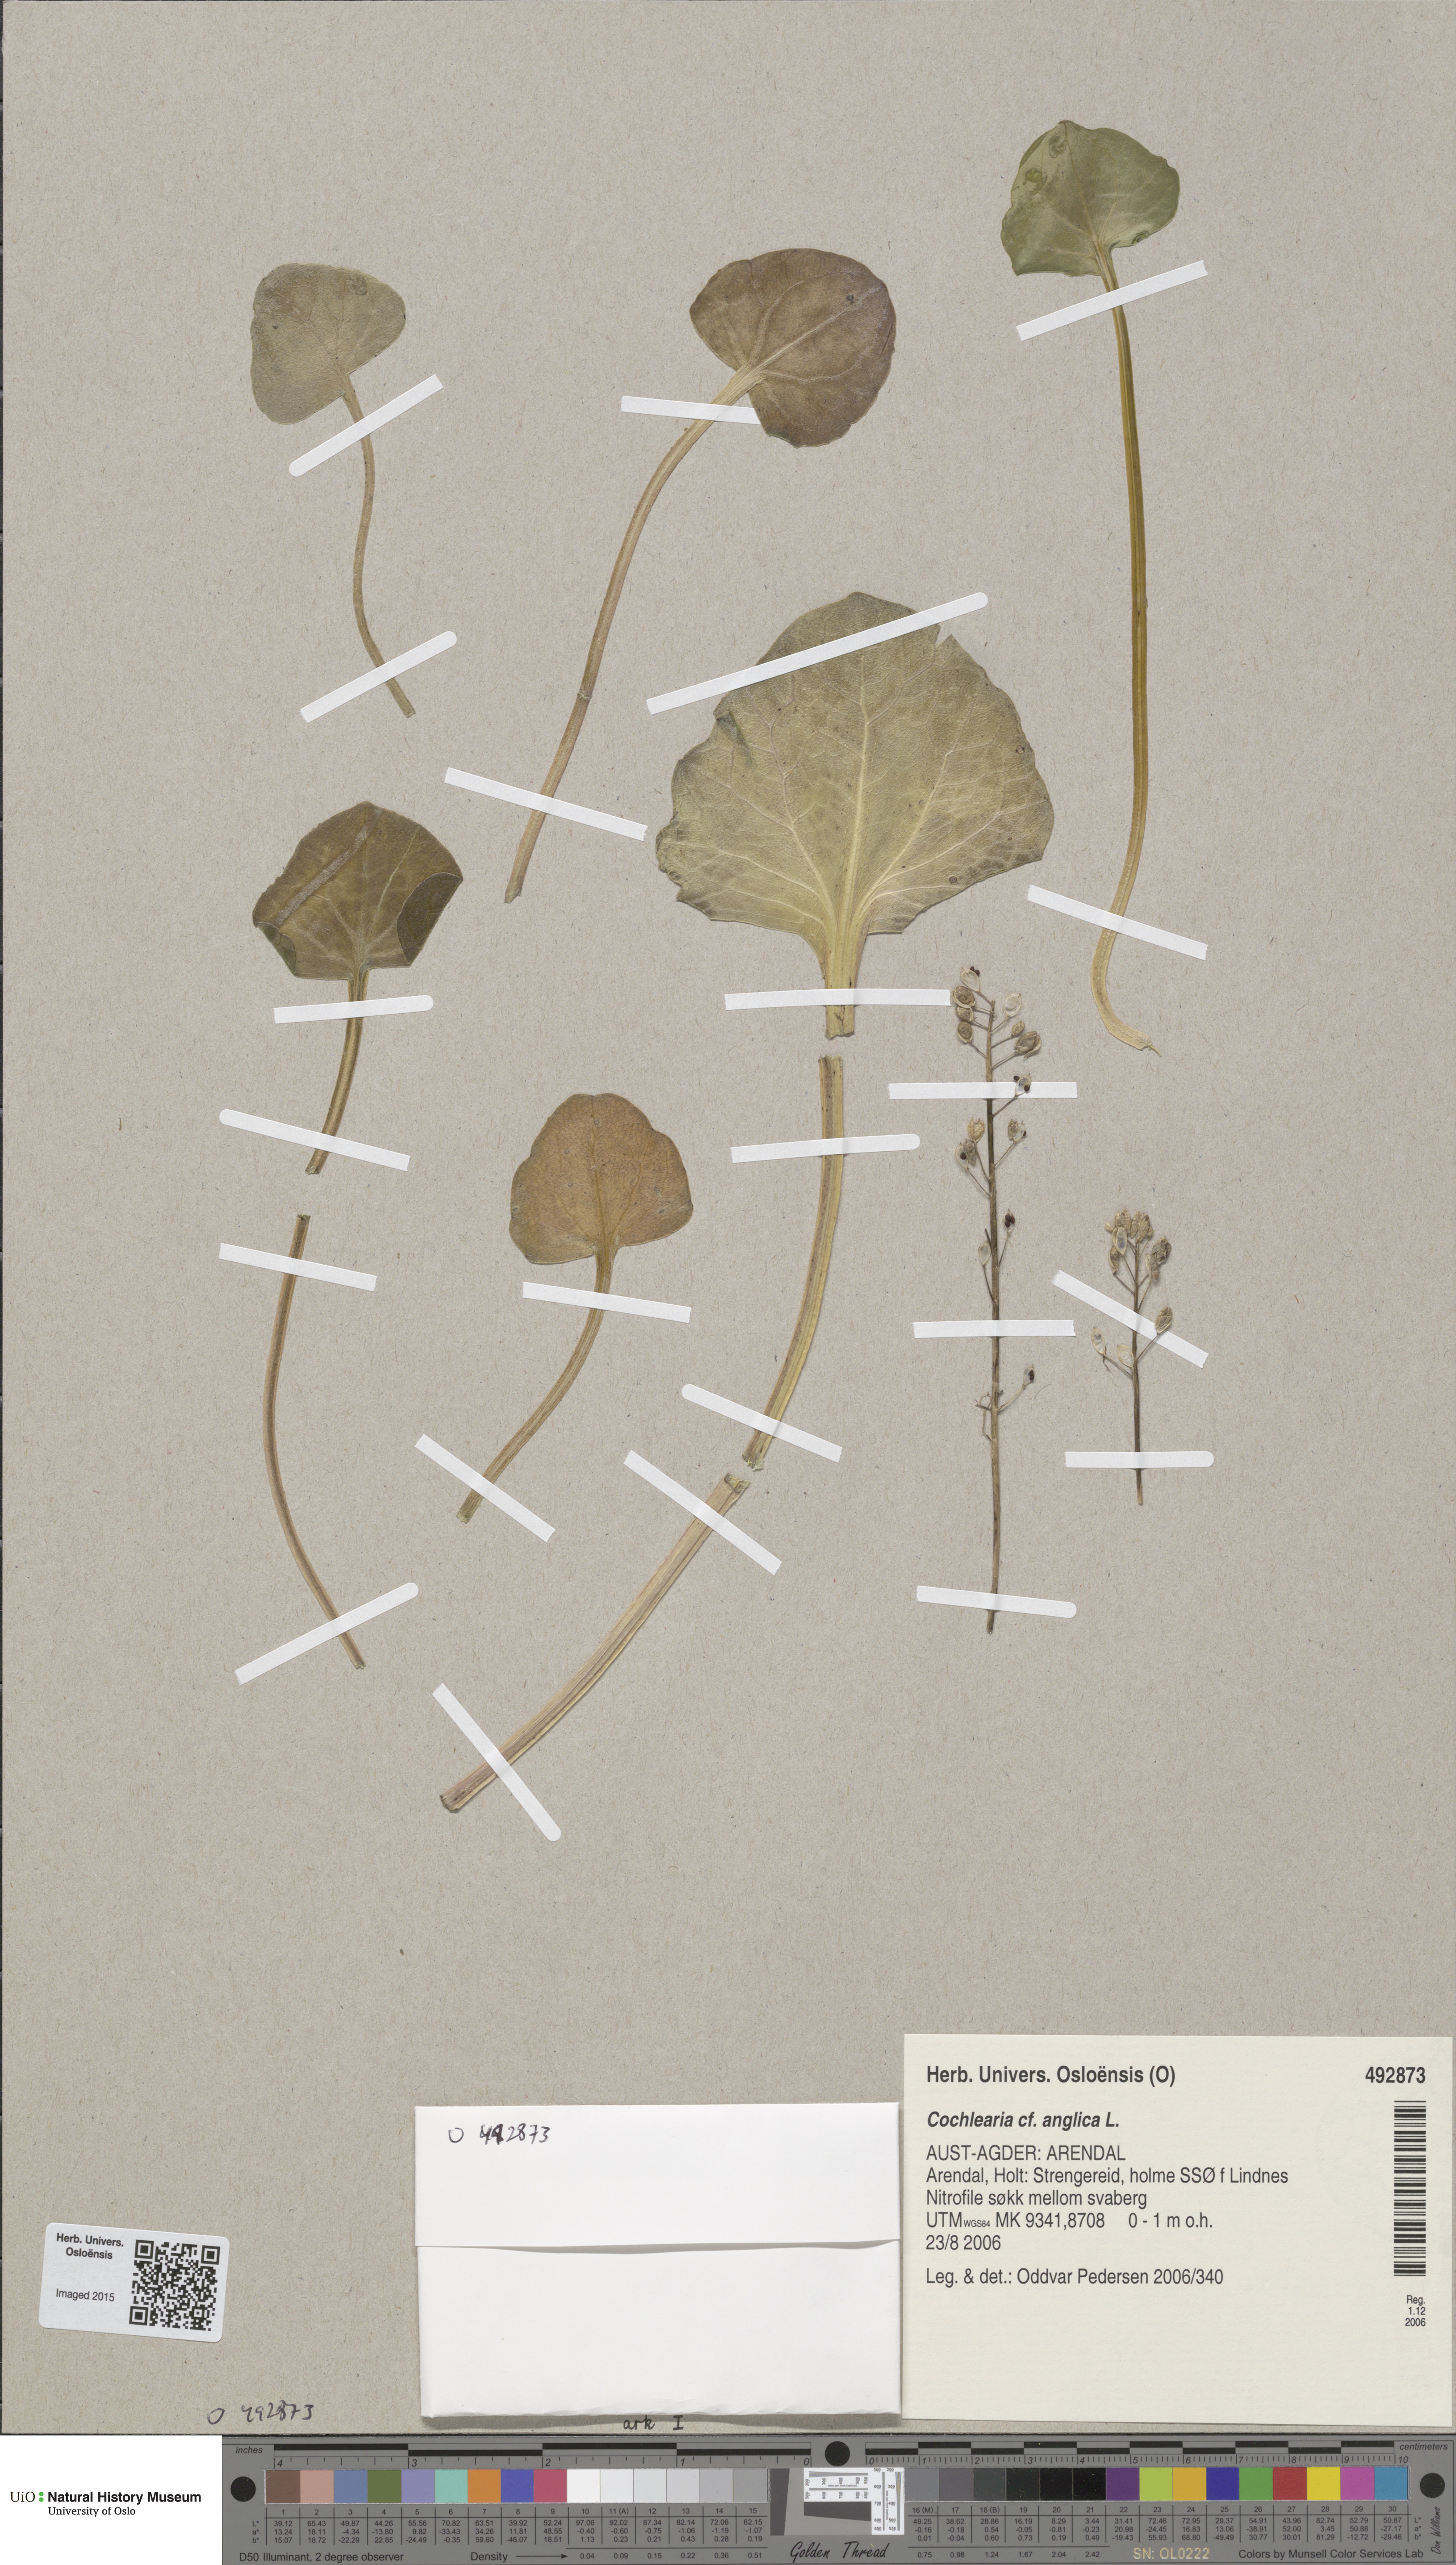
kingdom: Plantae
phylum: Tracheophyta
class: Magnoliopsida
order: Brassicales
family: Brassicaceae
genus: Cochlearia
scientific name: Cochlearia anglica
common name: English scurvygrass
